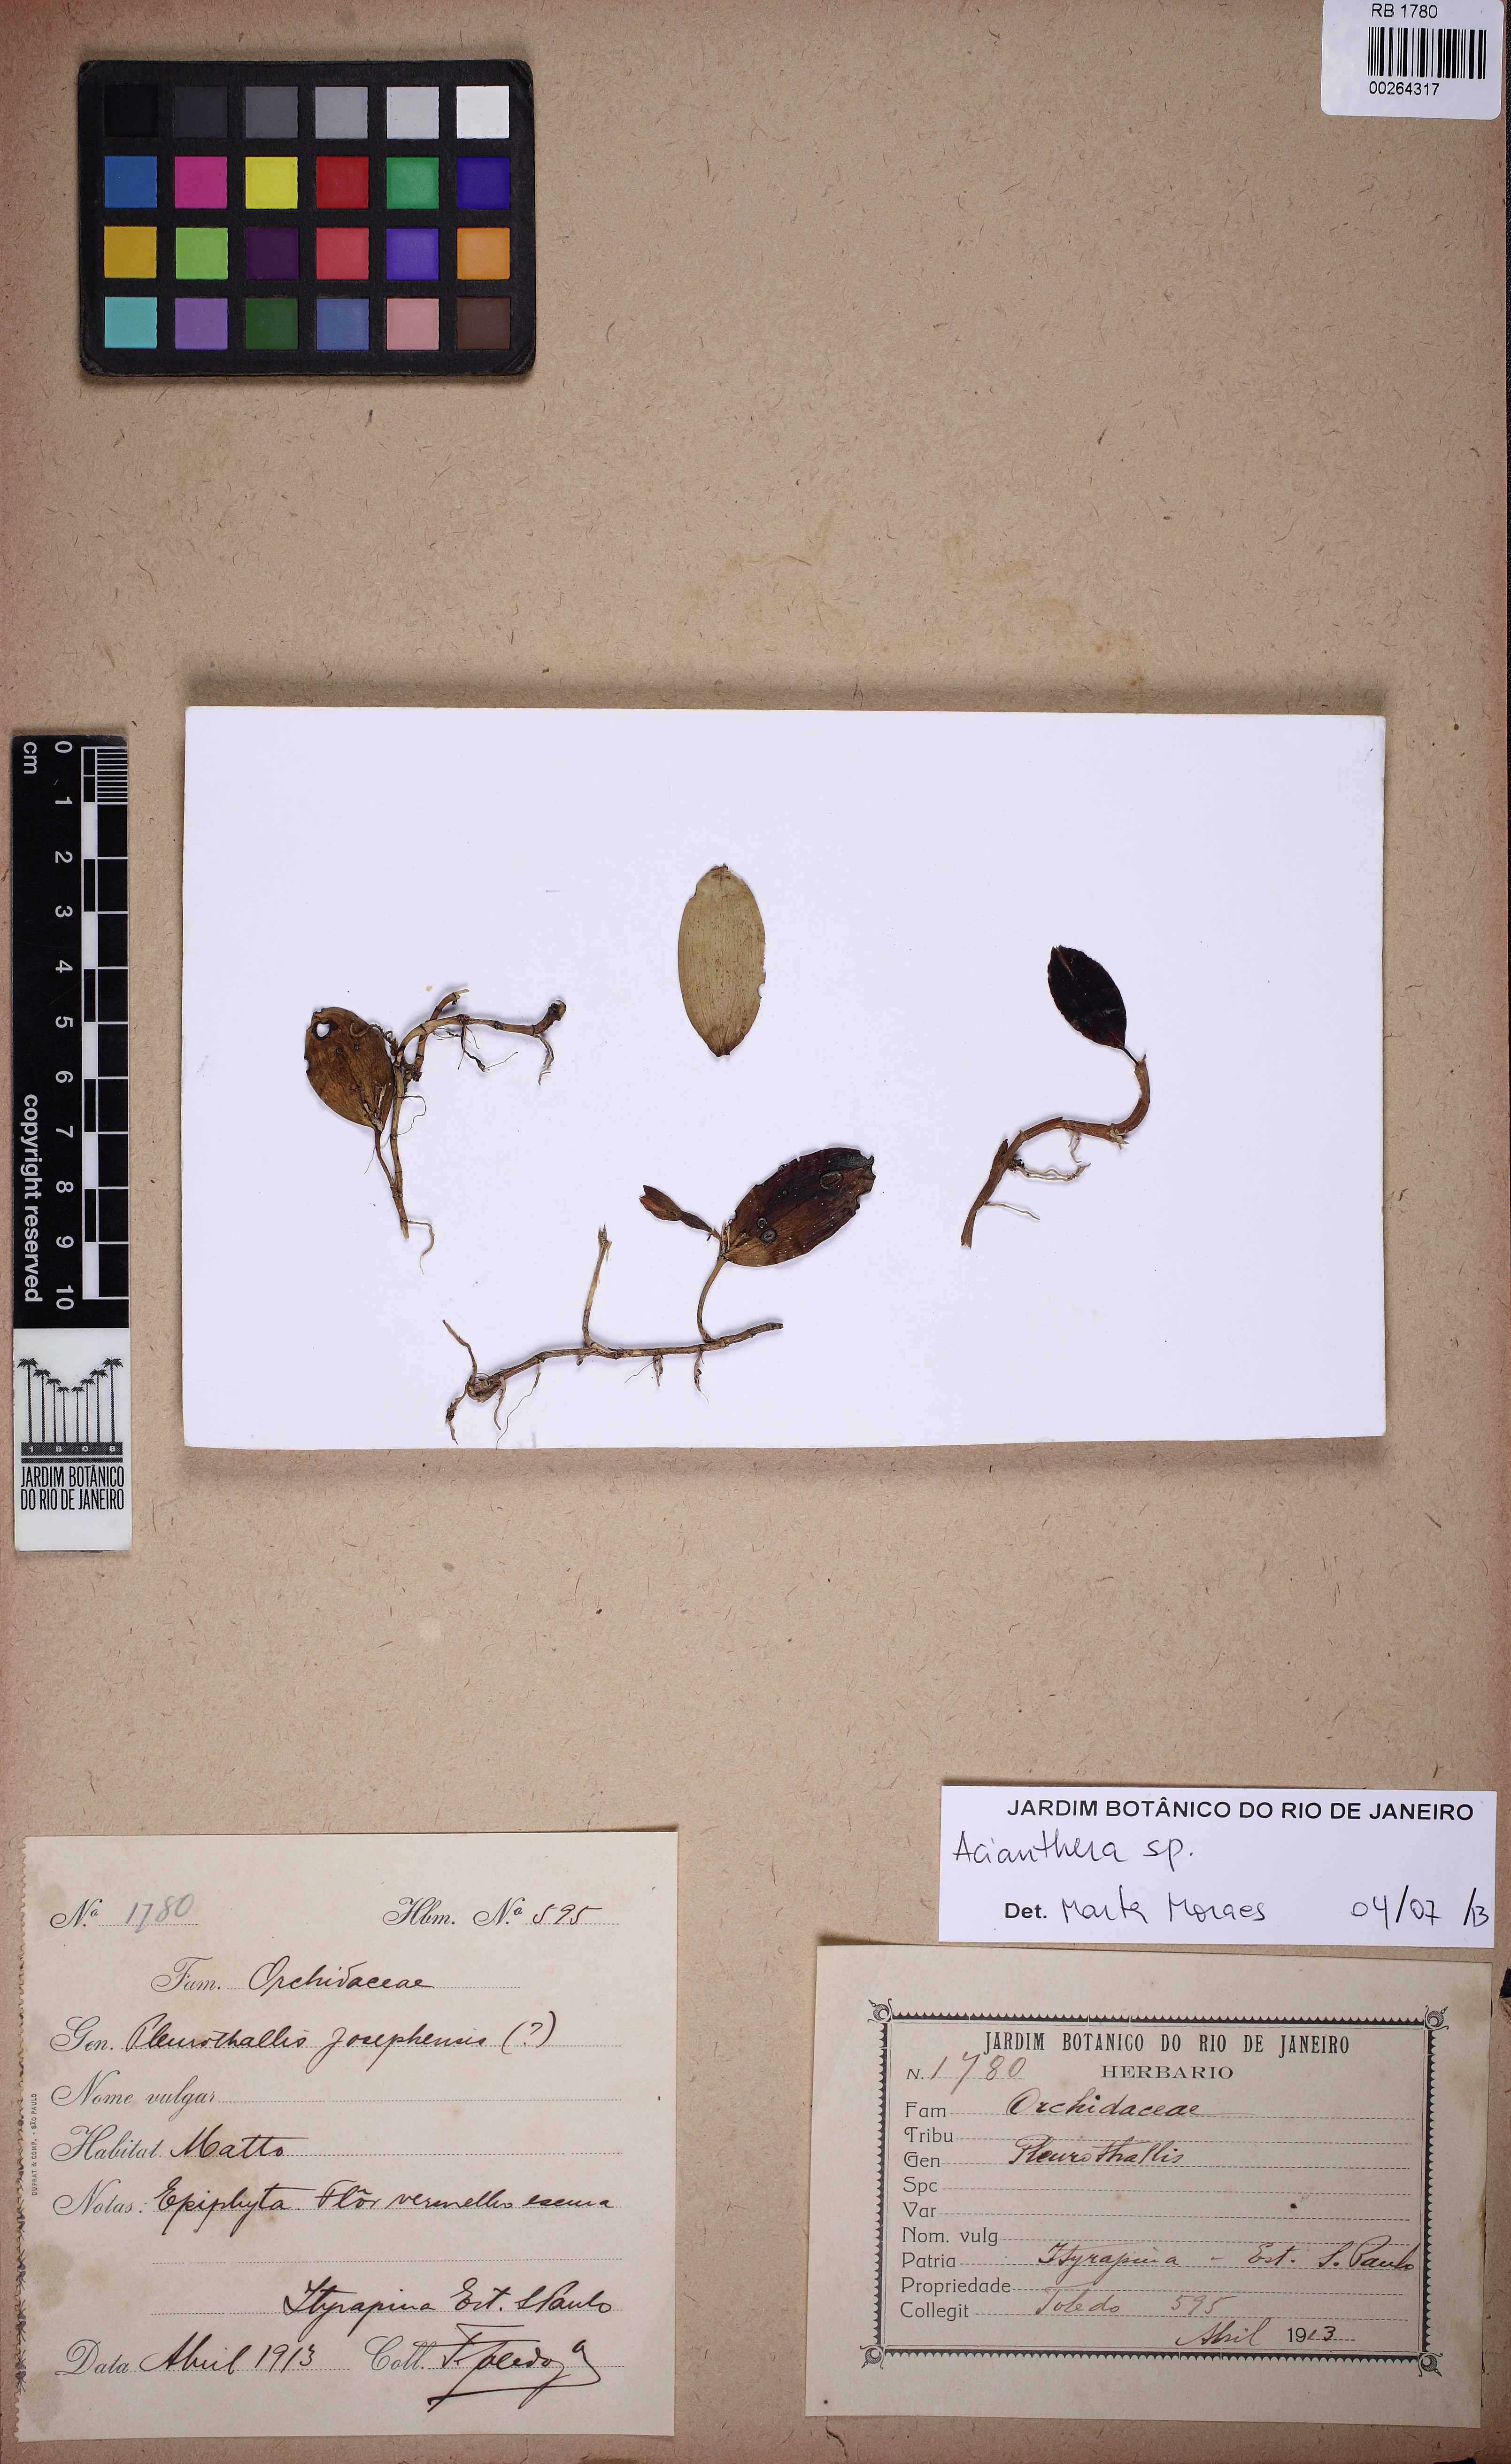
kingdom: Plantae
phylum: Tracheophyta
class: Liliopsida
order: Asparagales
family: Orchidaceae
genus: Acianthera
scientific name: Acianthera
